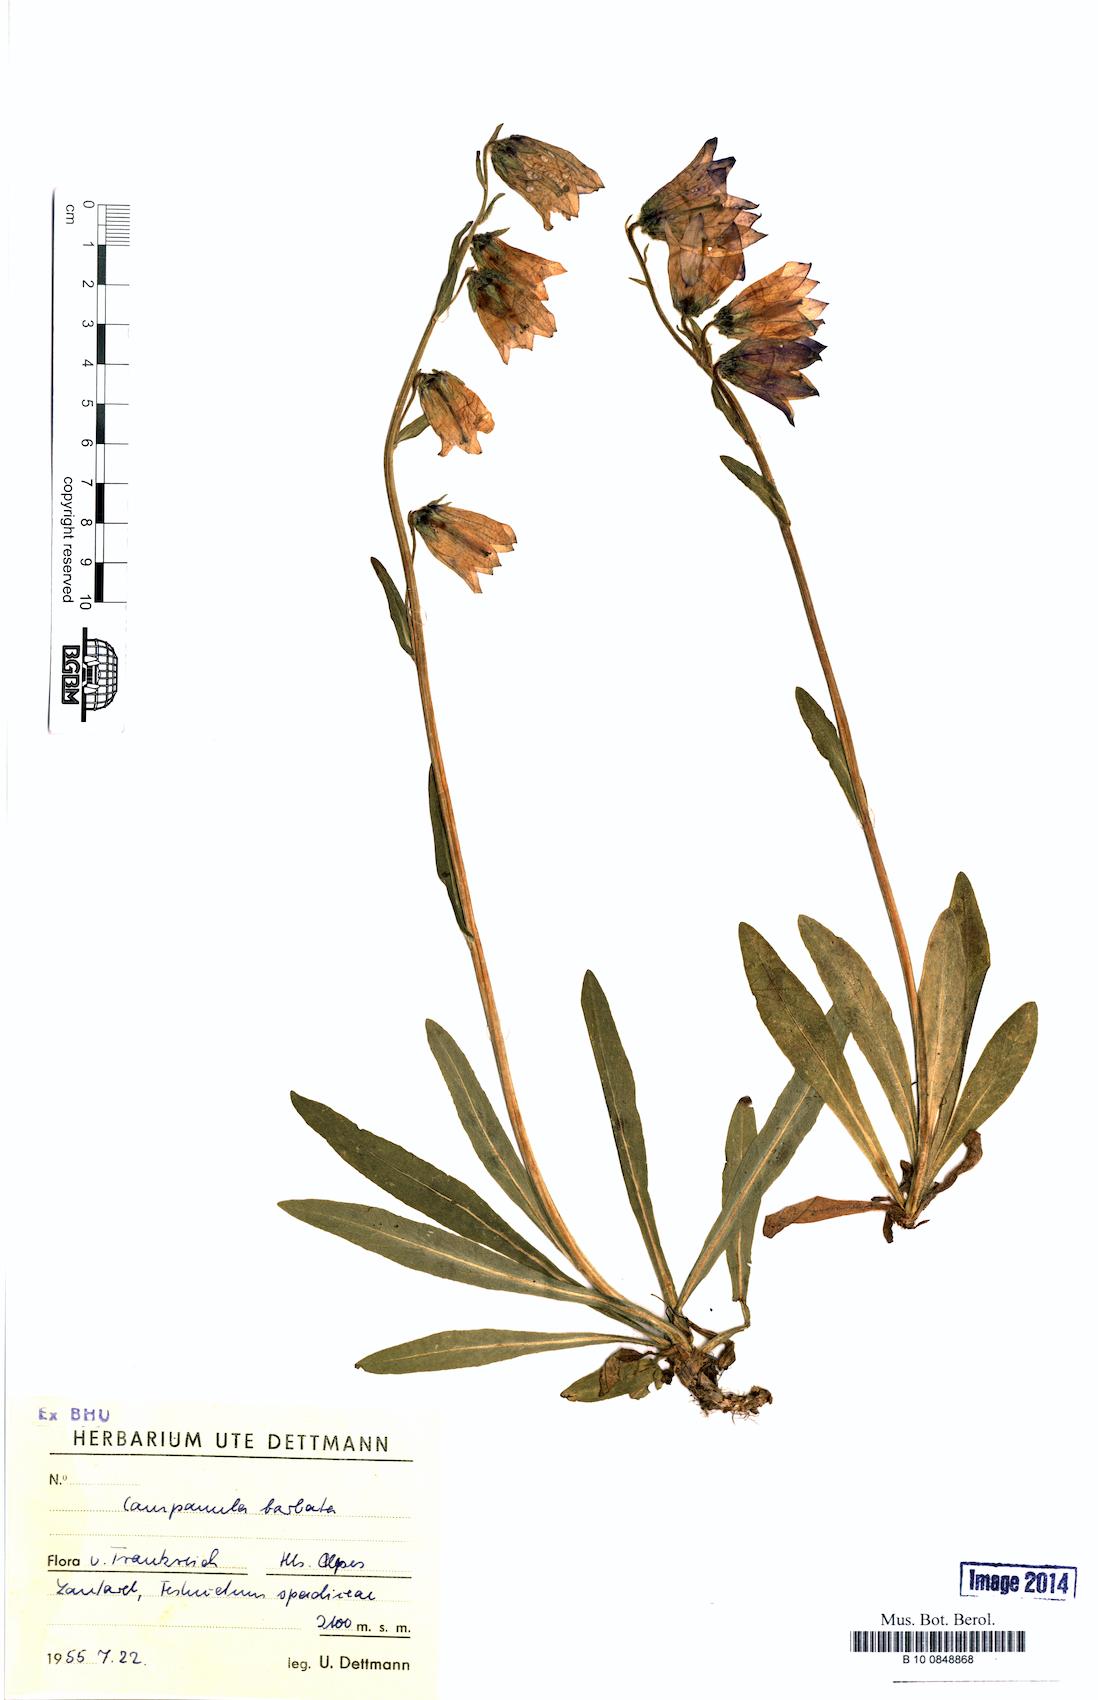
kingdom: Plantae
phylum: Tracheophyta
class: Magnoliopsida
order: Asterales
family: Campanulaceae
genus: Campanula
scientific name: Campanula barbata
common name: Bearded bellflower
